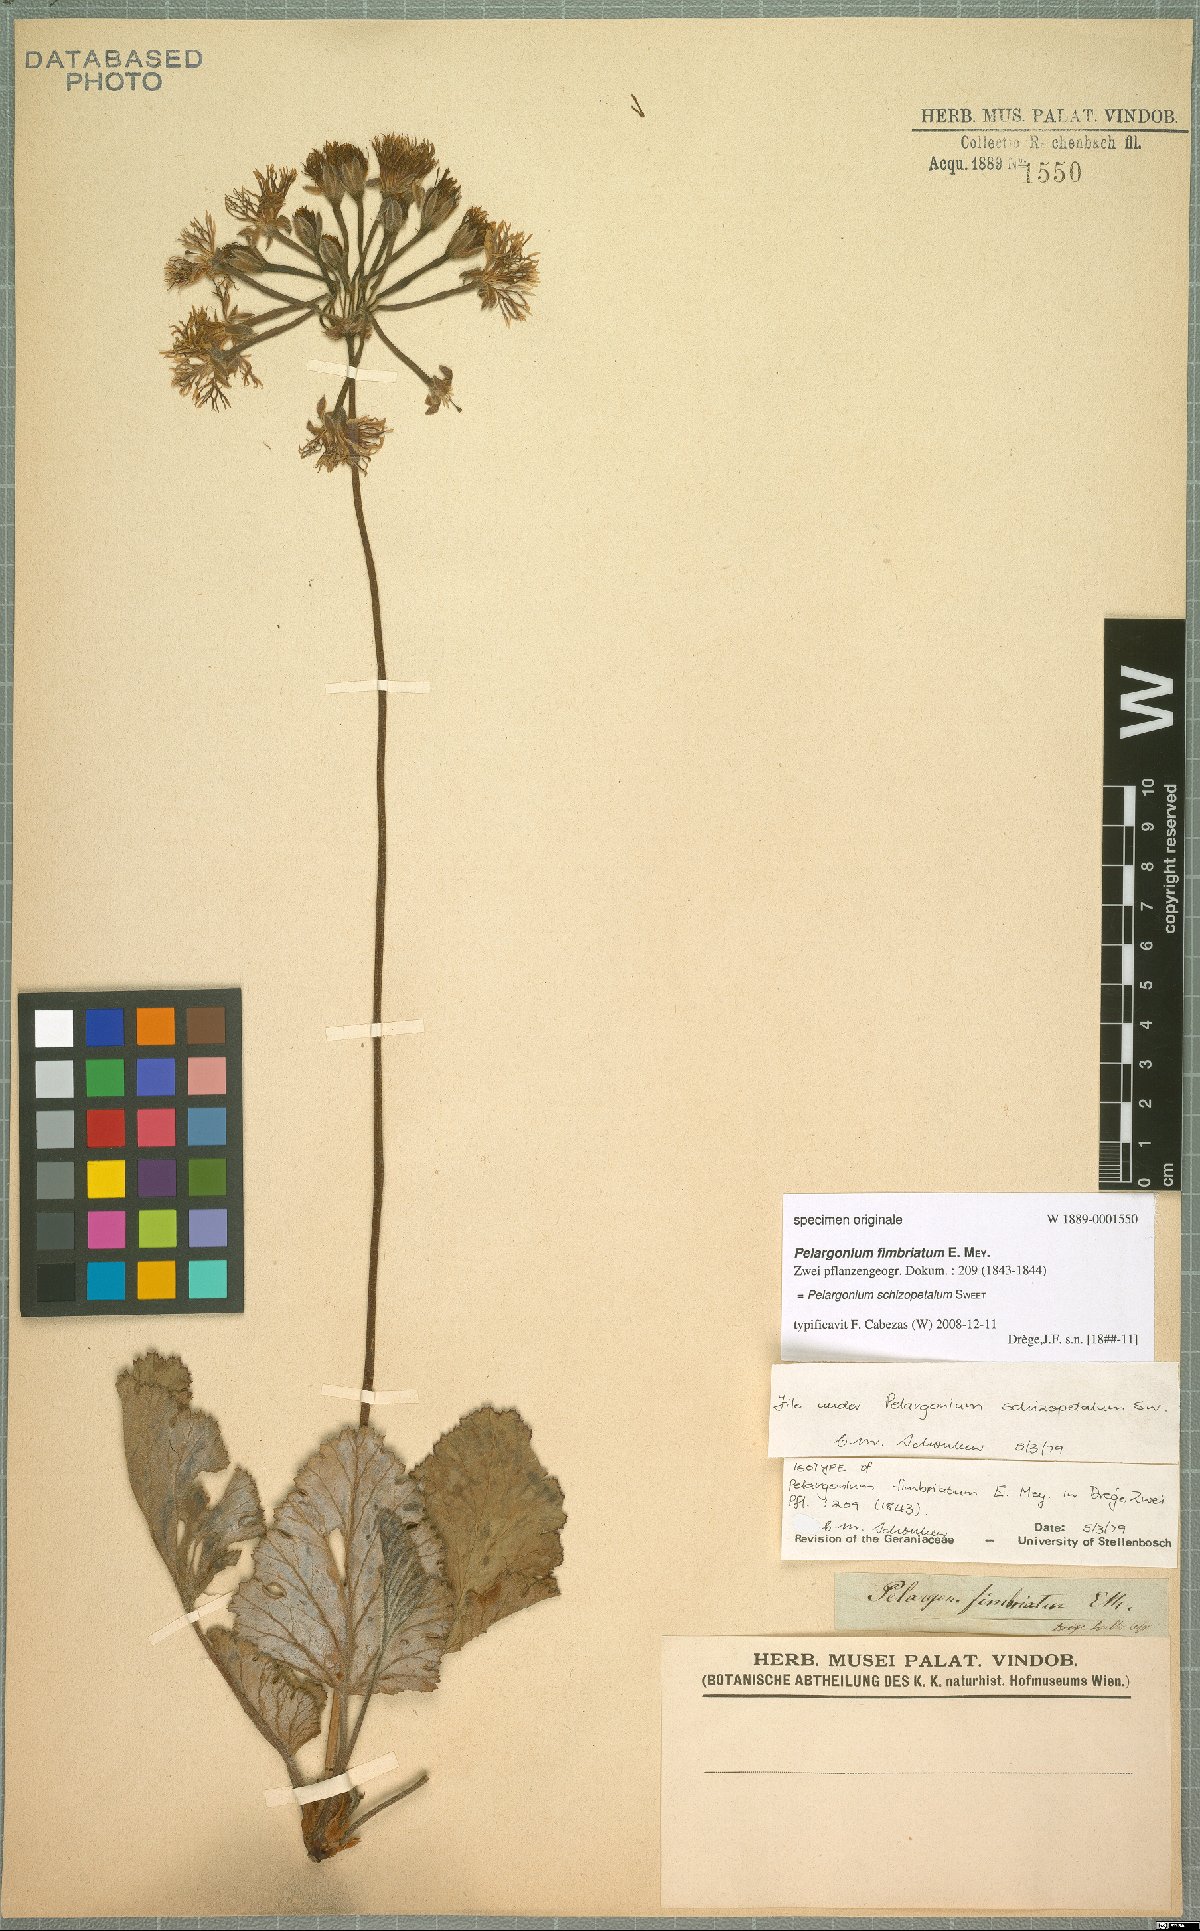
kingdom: Plantae
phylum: Tracheophyta
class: Magnoliopsida
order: Geraniales
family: Geraniaceae
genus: Pelargonium
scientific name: Pelargonium schizopetalum
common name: Divided-petal pelargonium
